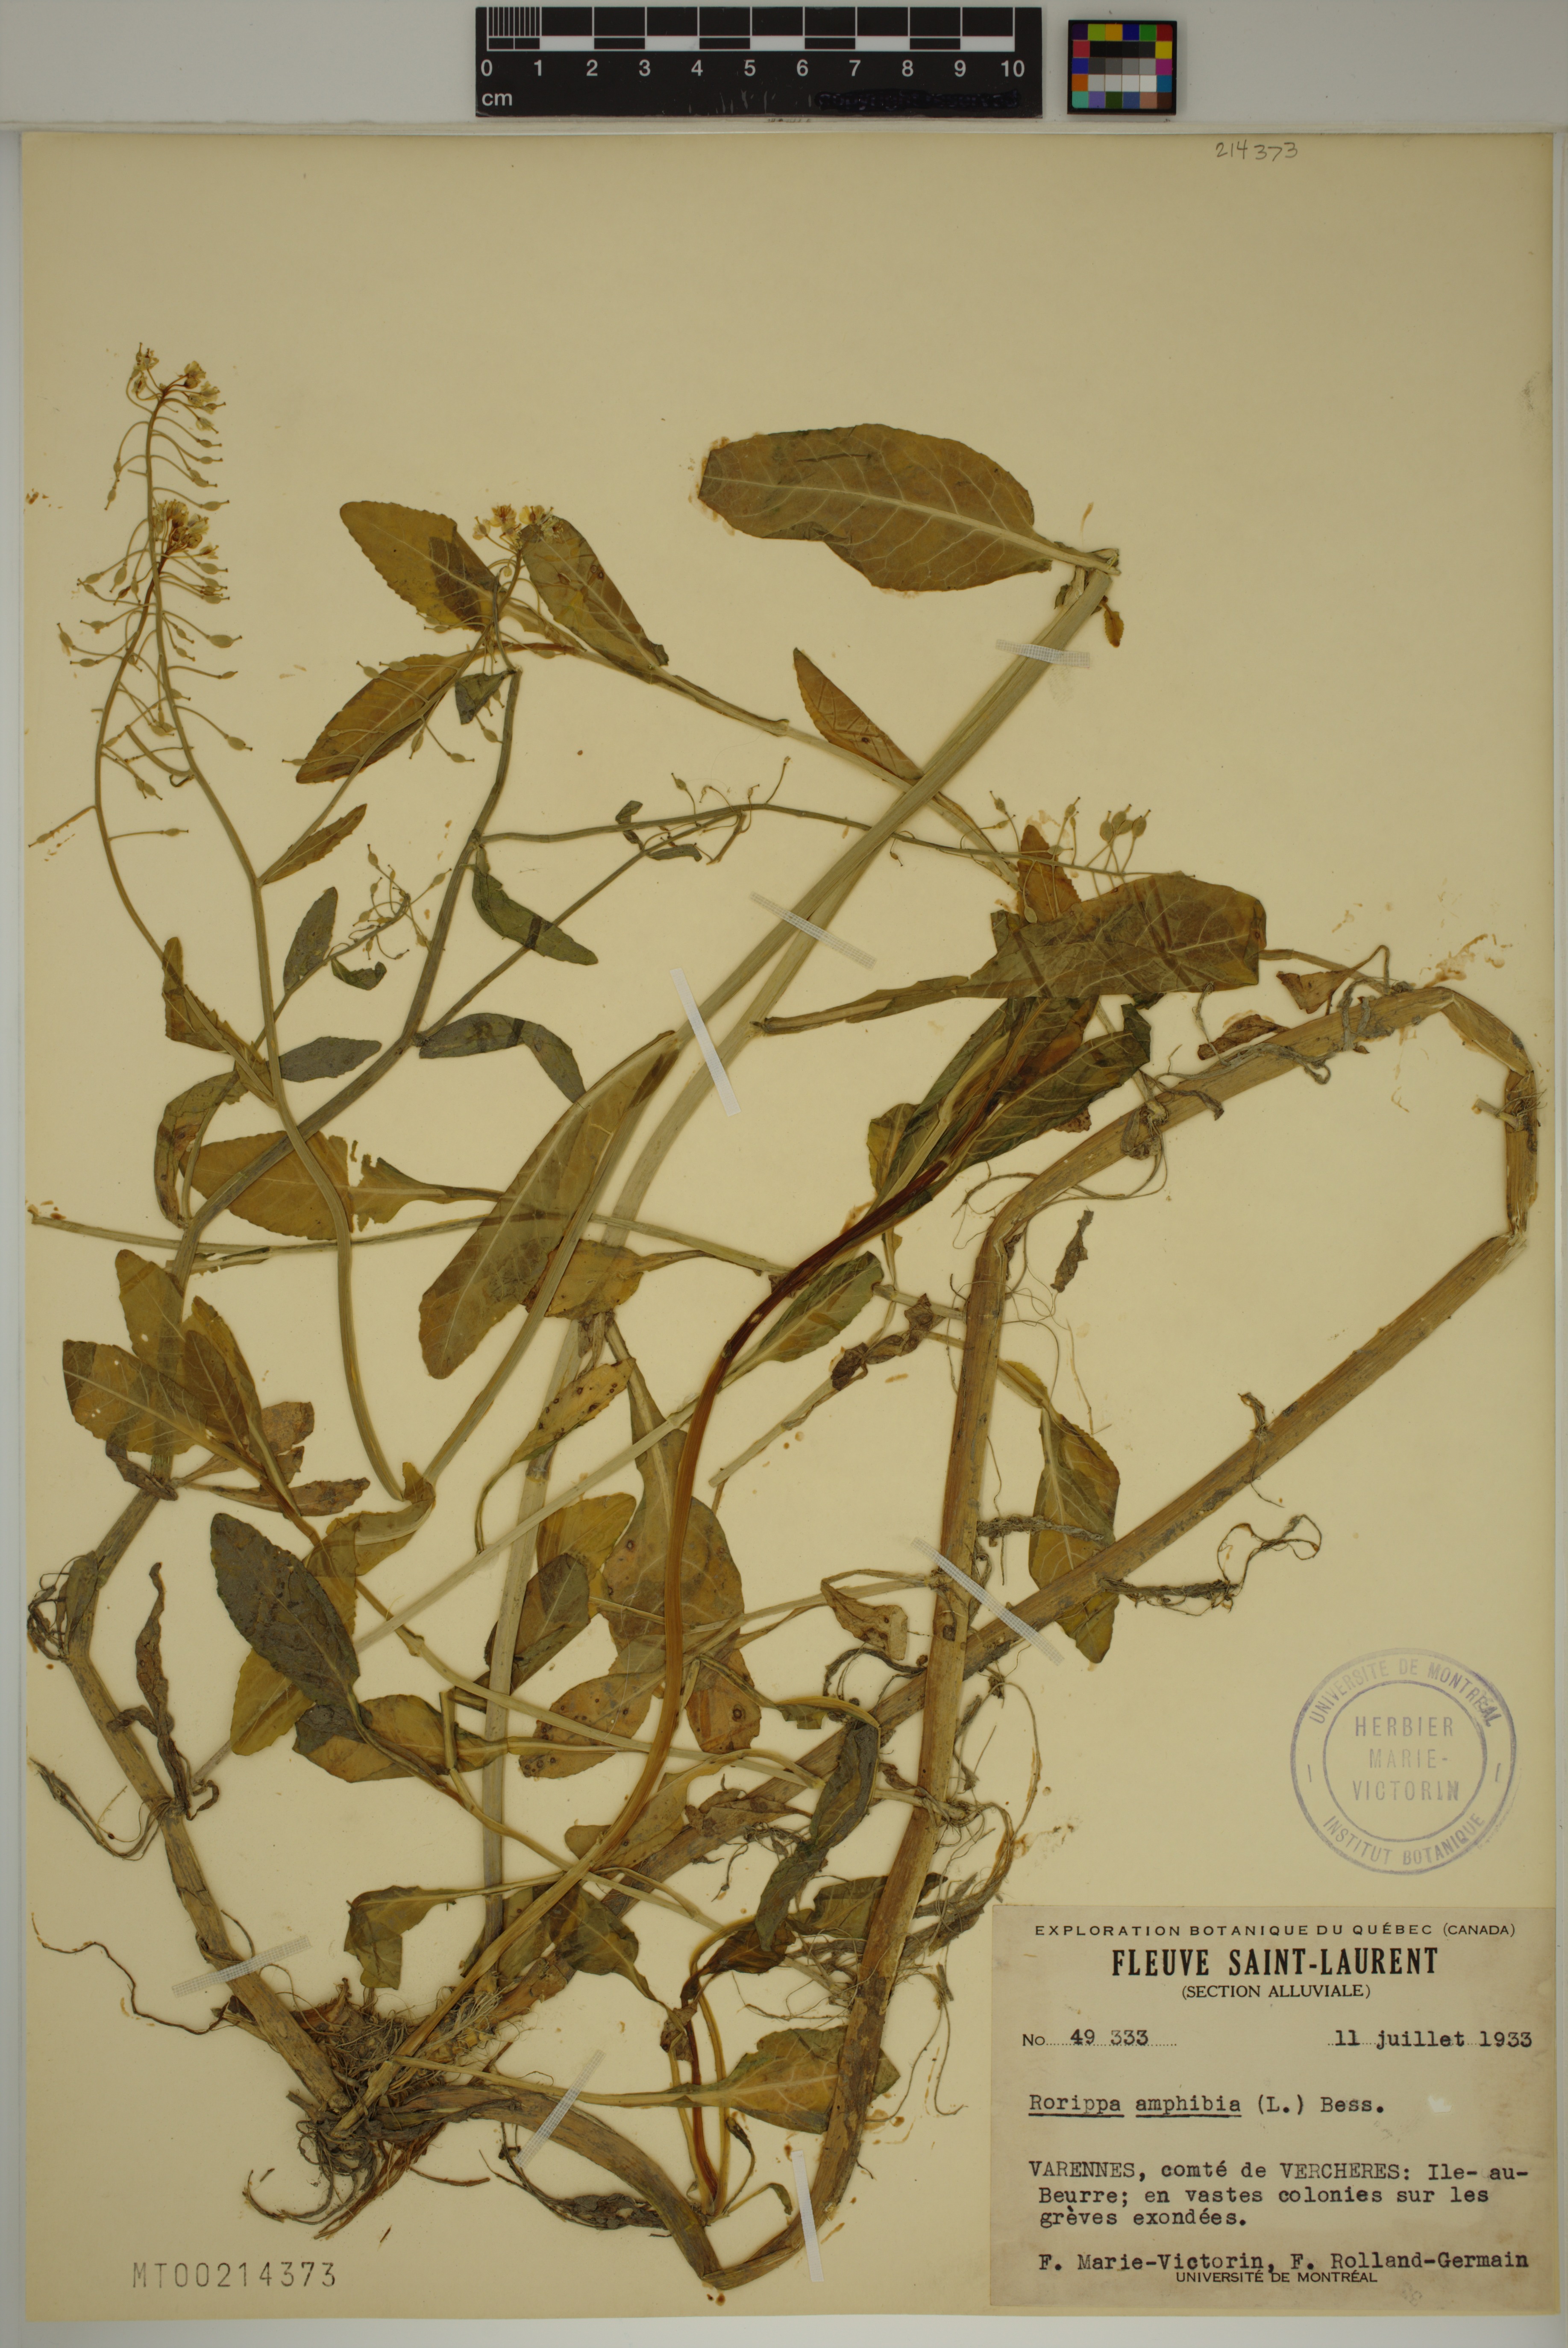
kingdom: Plantae
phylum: Tracheophyta
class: Magnoliopsida
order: Brassicales
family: Brassicaceae
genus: Rorippa
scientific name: Rorippa amphibia
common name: Great yellow-cress
